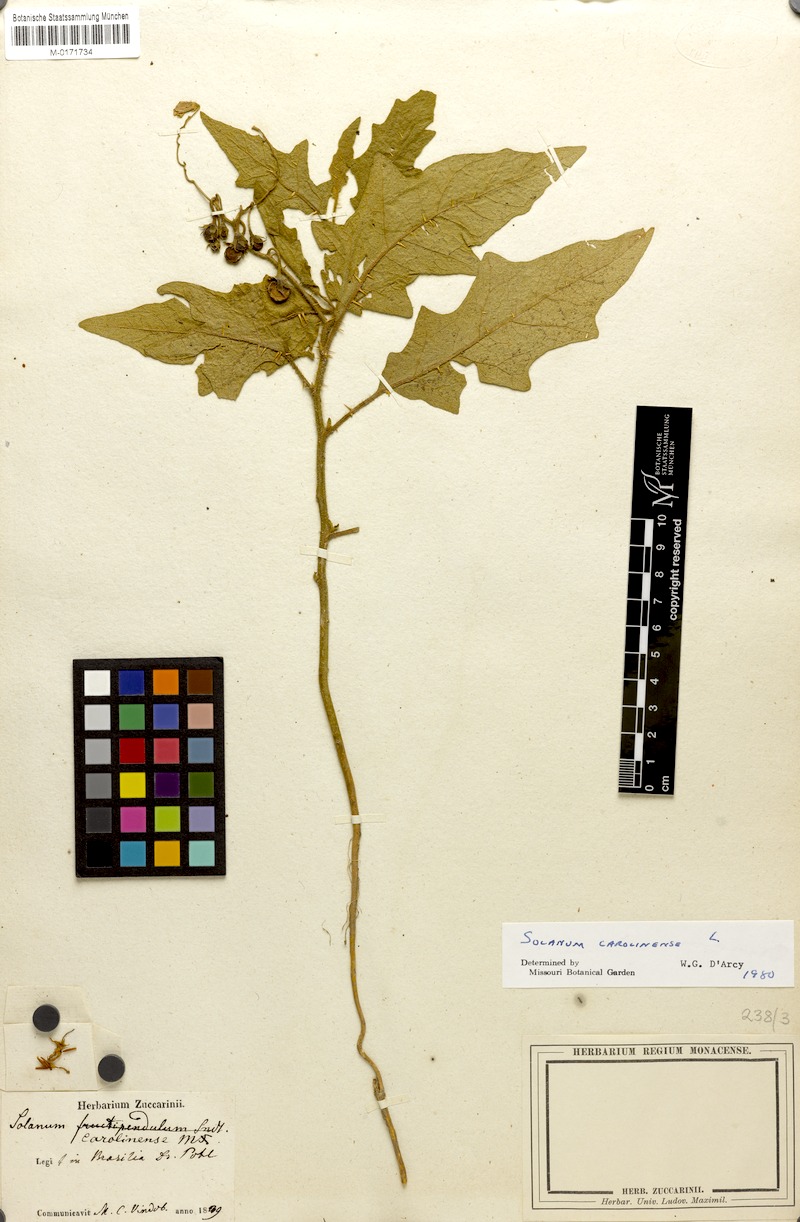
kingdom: Plantae
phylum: Tracheophyta
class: Magnoliopsida
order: Solanales
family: Solanaceae
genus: Solanum
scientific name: Solanum carolinense
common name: Horse-nettle
